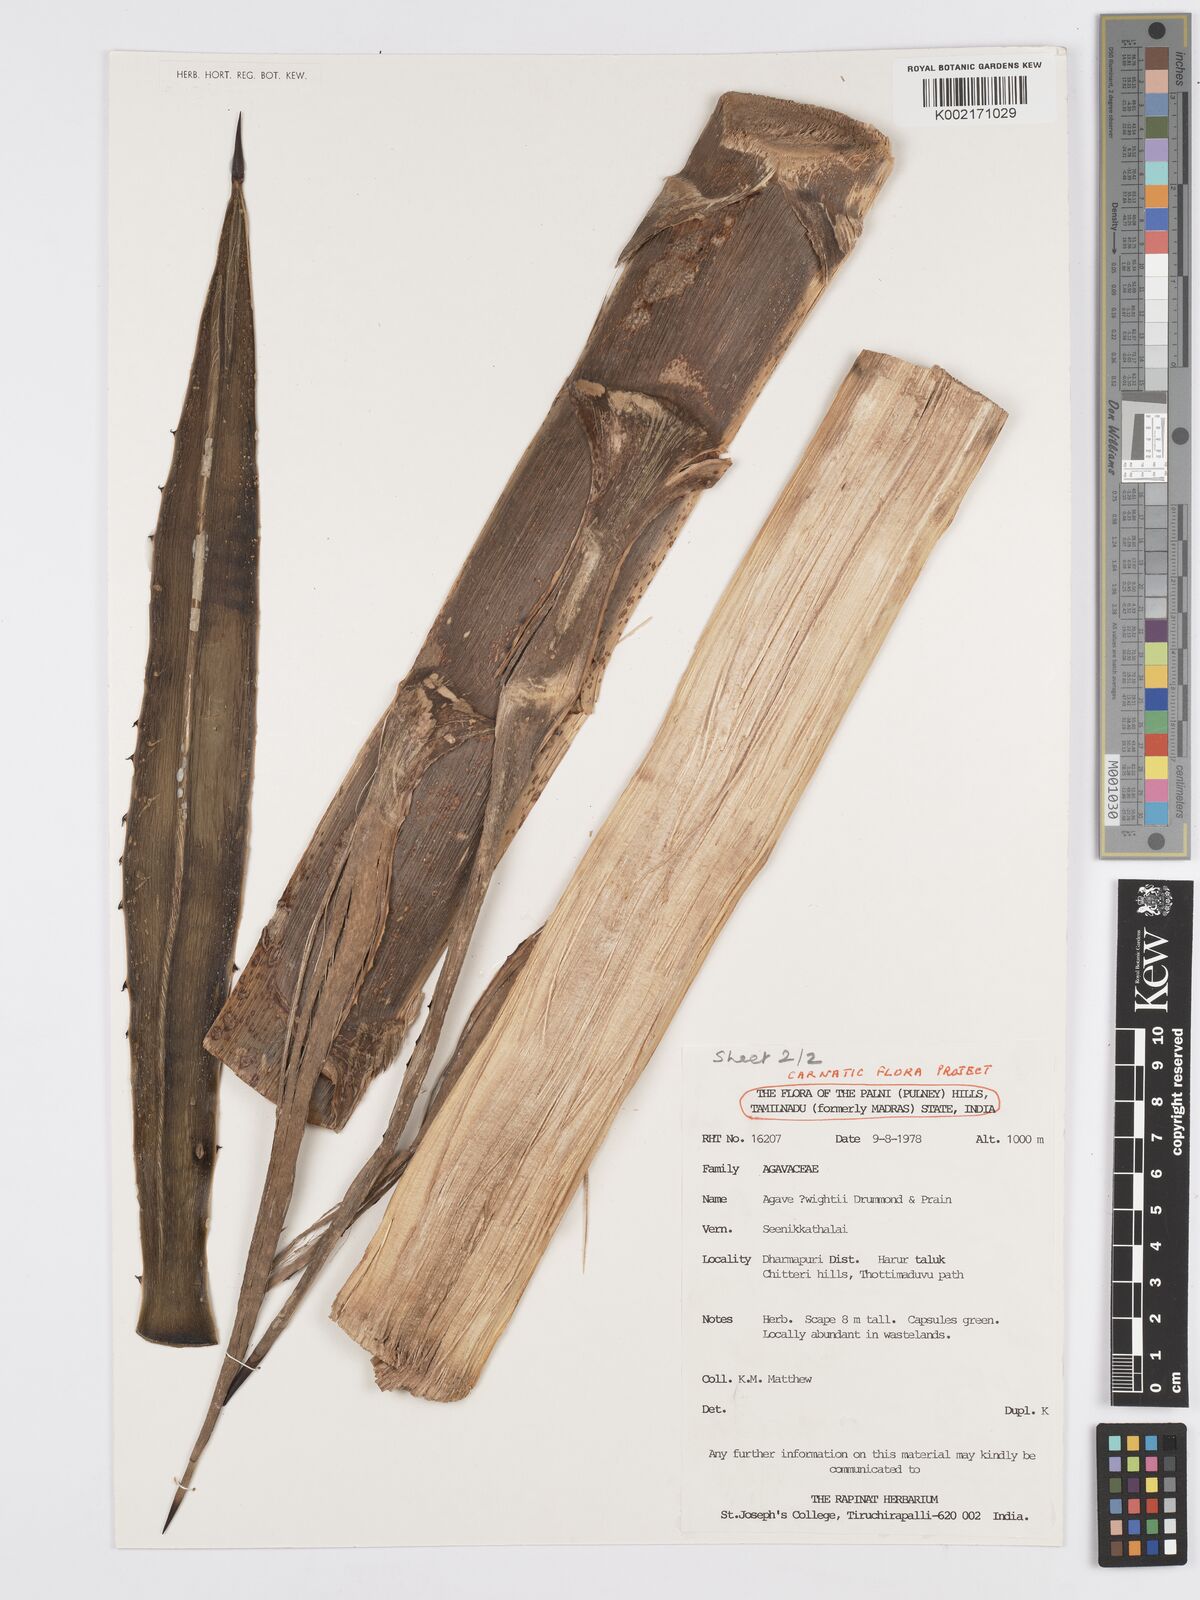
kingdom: Plantae
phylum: Tracheophyta
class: Liliopsida
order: Asparagales
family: Asparagaceae
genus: Agave
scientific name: Agave angustifolia
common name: Mescal agave
